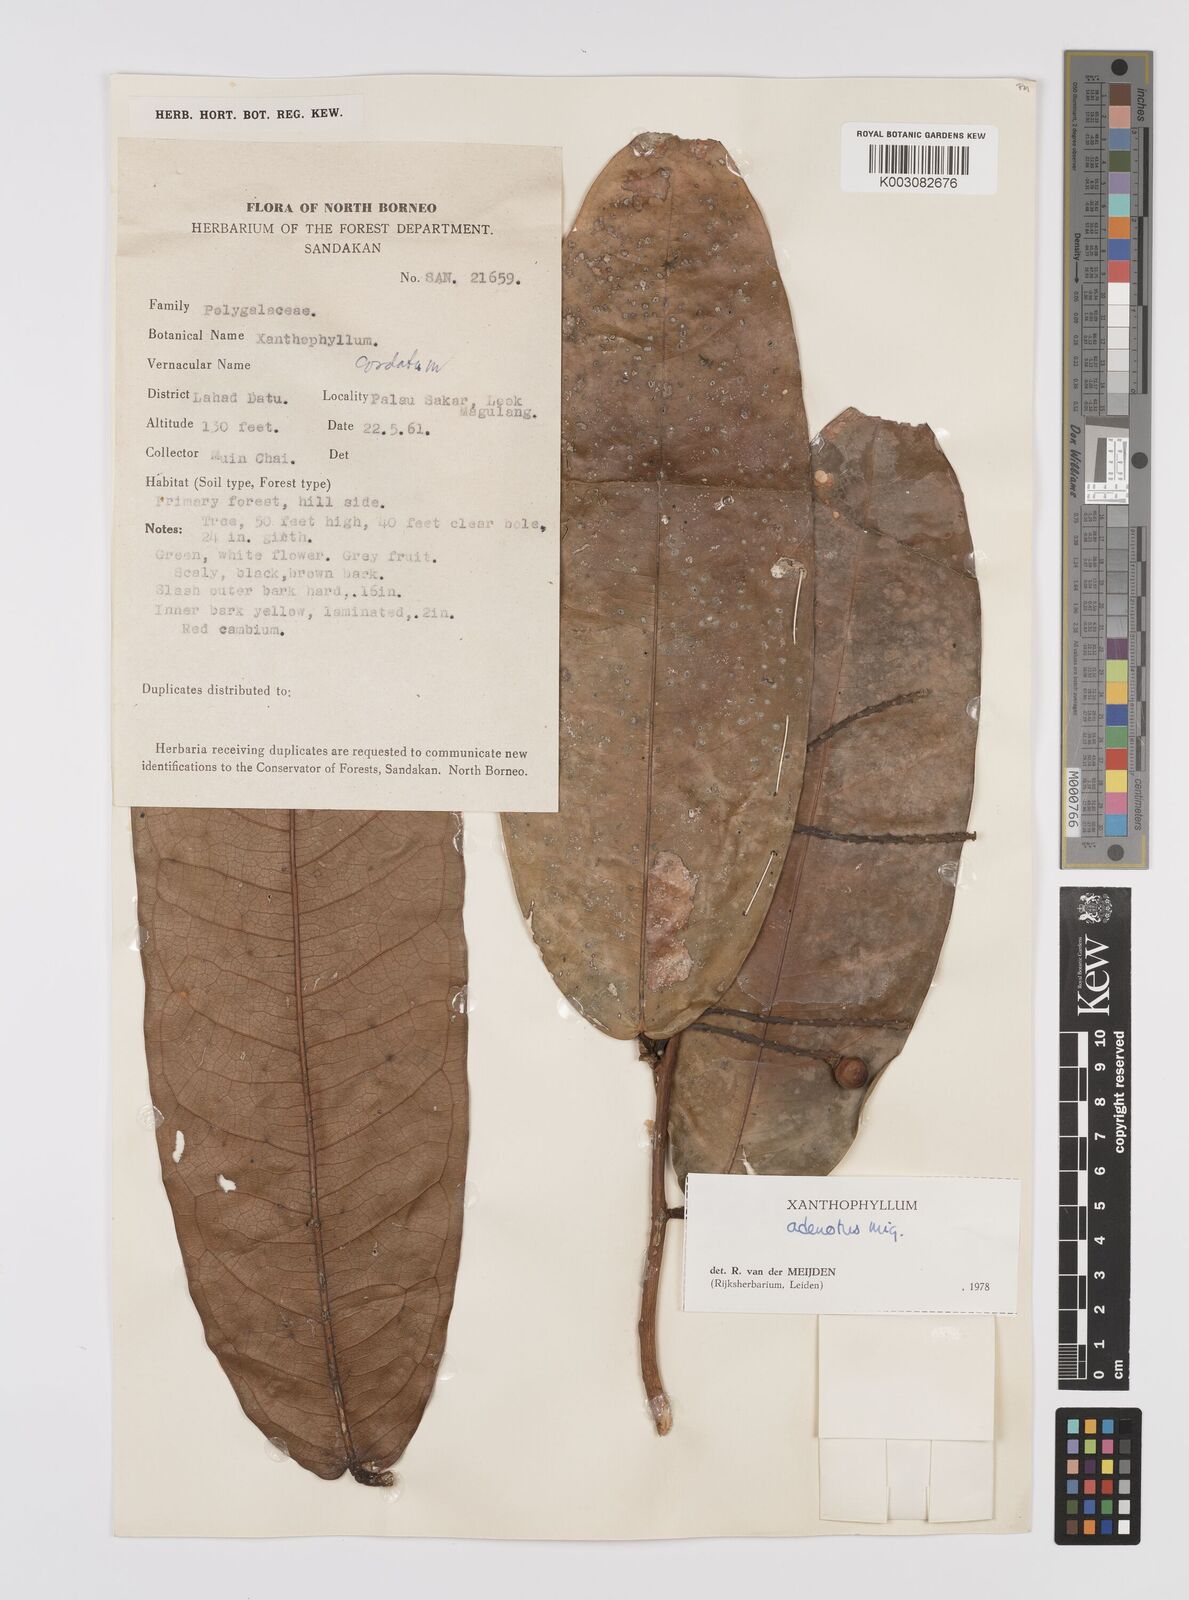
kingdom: Plantae
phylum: Tracheophyta
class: Magnoliopsida
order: Fabales
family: Polygalaceae
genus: Xanthophyllum
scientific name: Xanthophyllum adenotus
